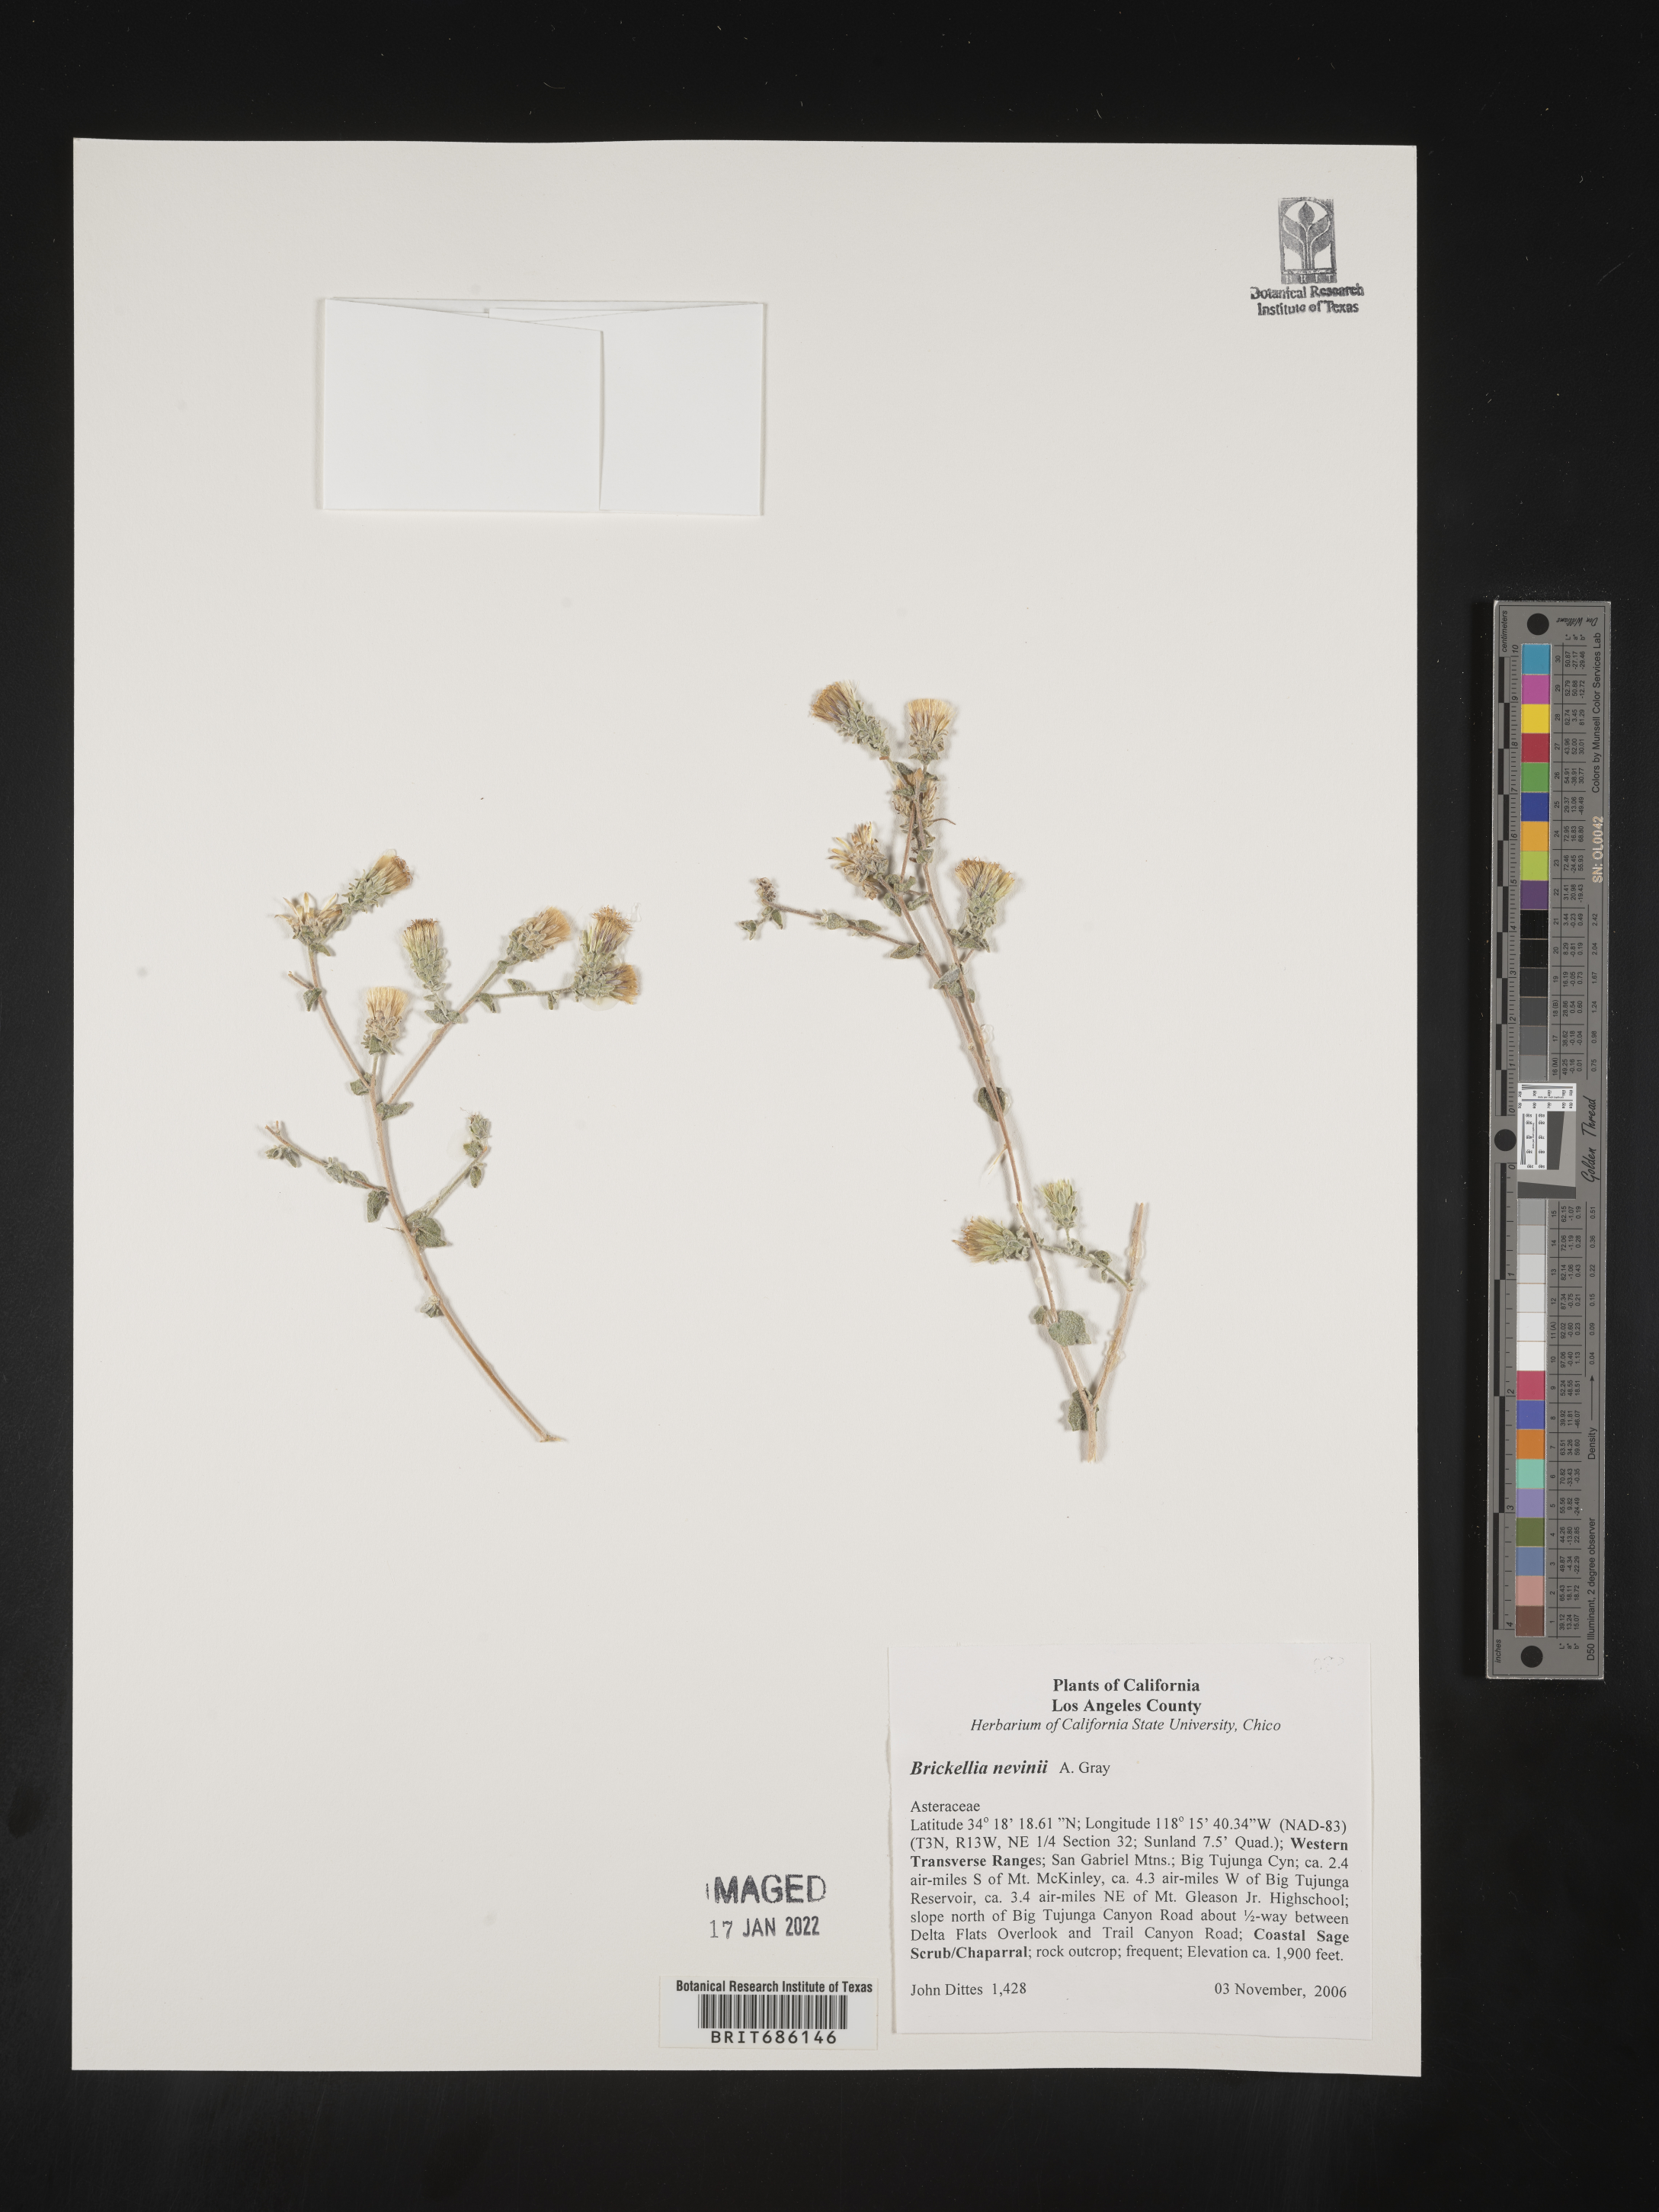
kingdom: Plantae
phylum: Tracheophyta
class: Magnoliopsida
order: Asterales
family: Asteraceae
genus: Brickellia
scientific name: Brickellia nevinii
